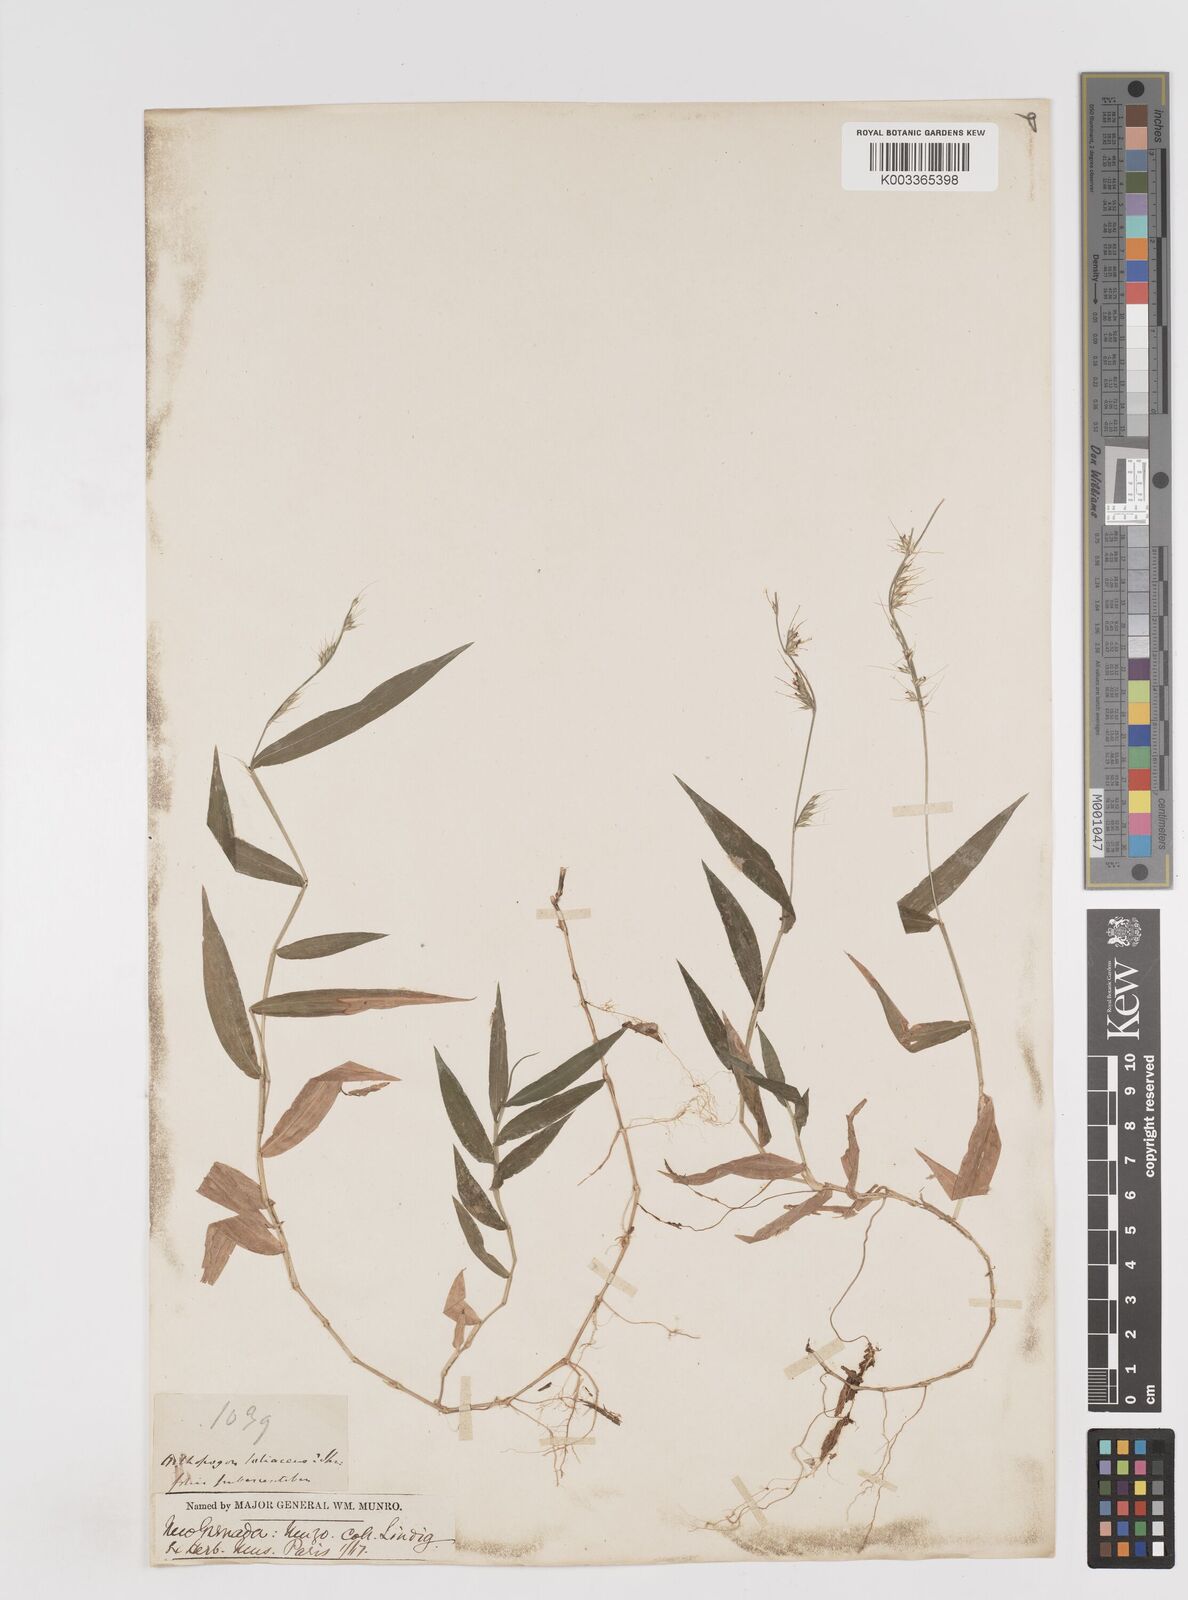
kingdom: Plantae
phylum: Tracheophyta
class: Liliopsida
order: Poales
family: Poaceae
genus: Oplismenus
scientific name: Oplismenus hirtellus
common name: Basketgrass
